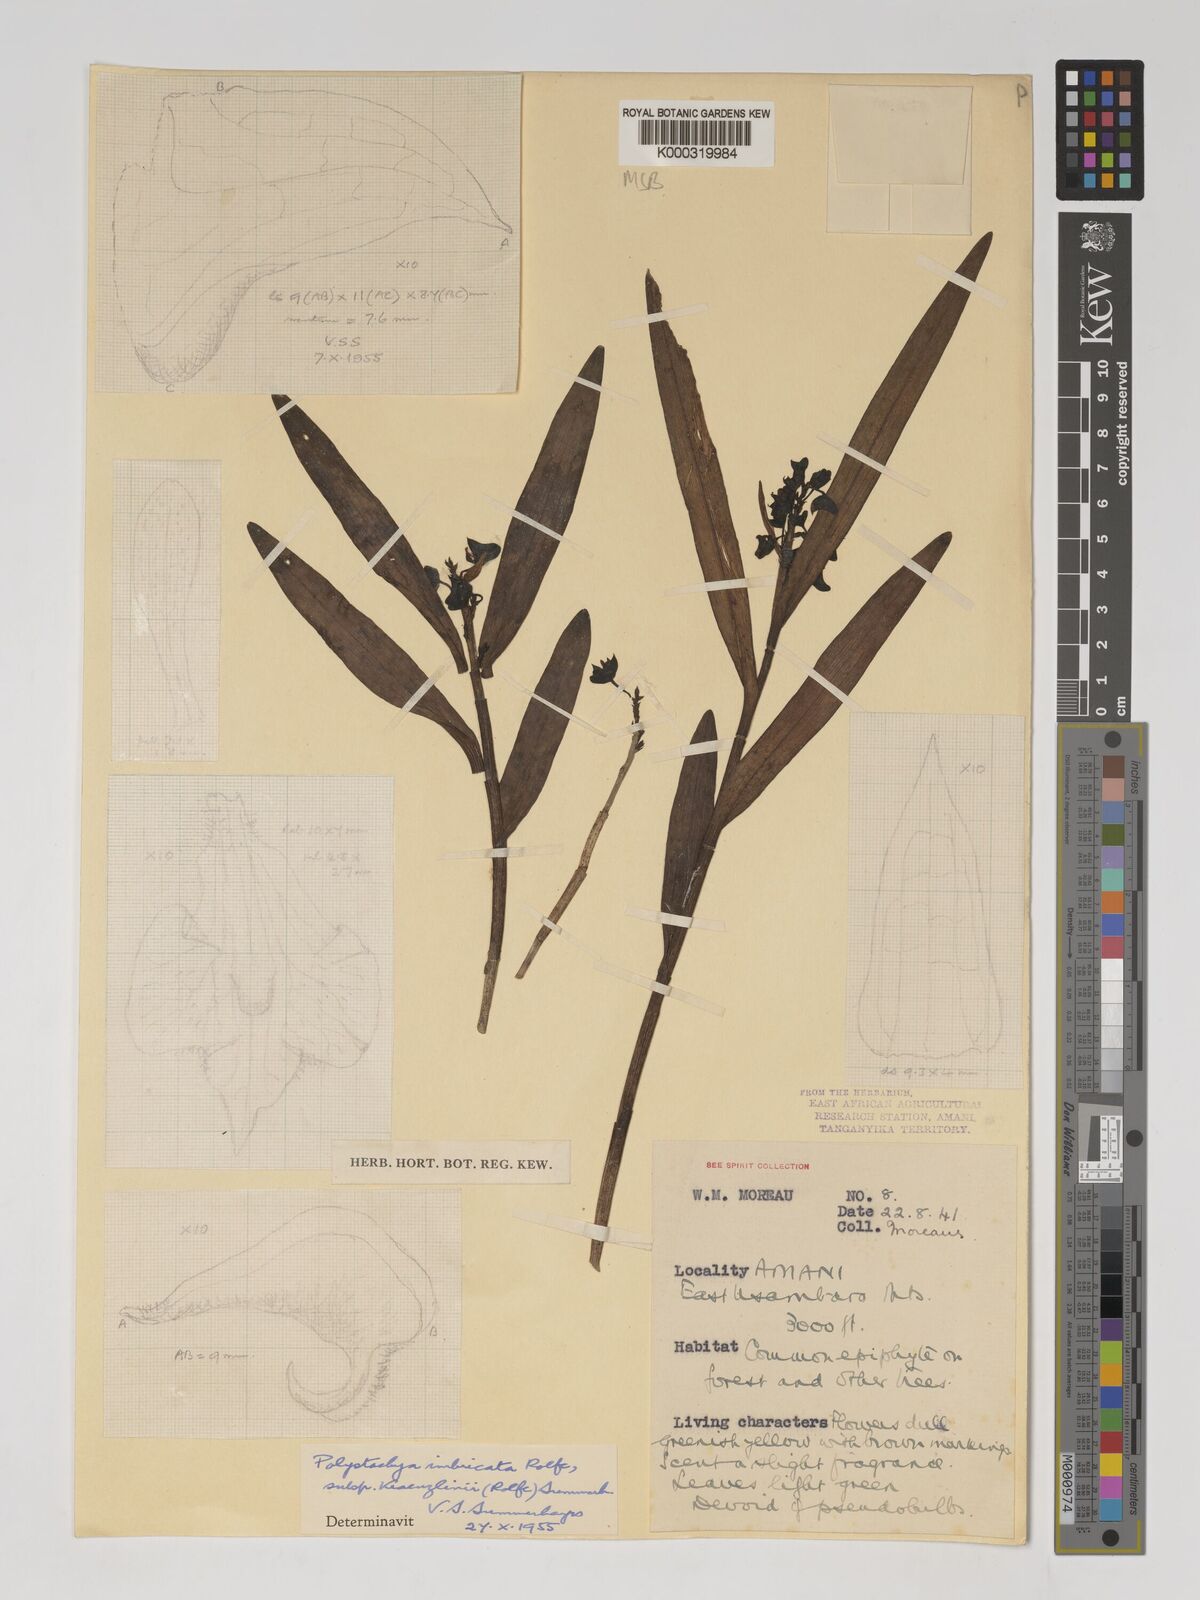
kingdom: Plantae
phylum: Tracheophyta
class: Liliopsida
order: Asparagales
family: Orchidaceae
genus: Polystachya
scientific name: Polystachya albescens
